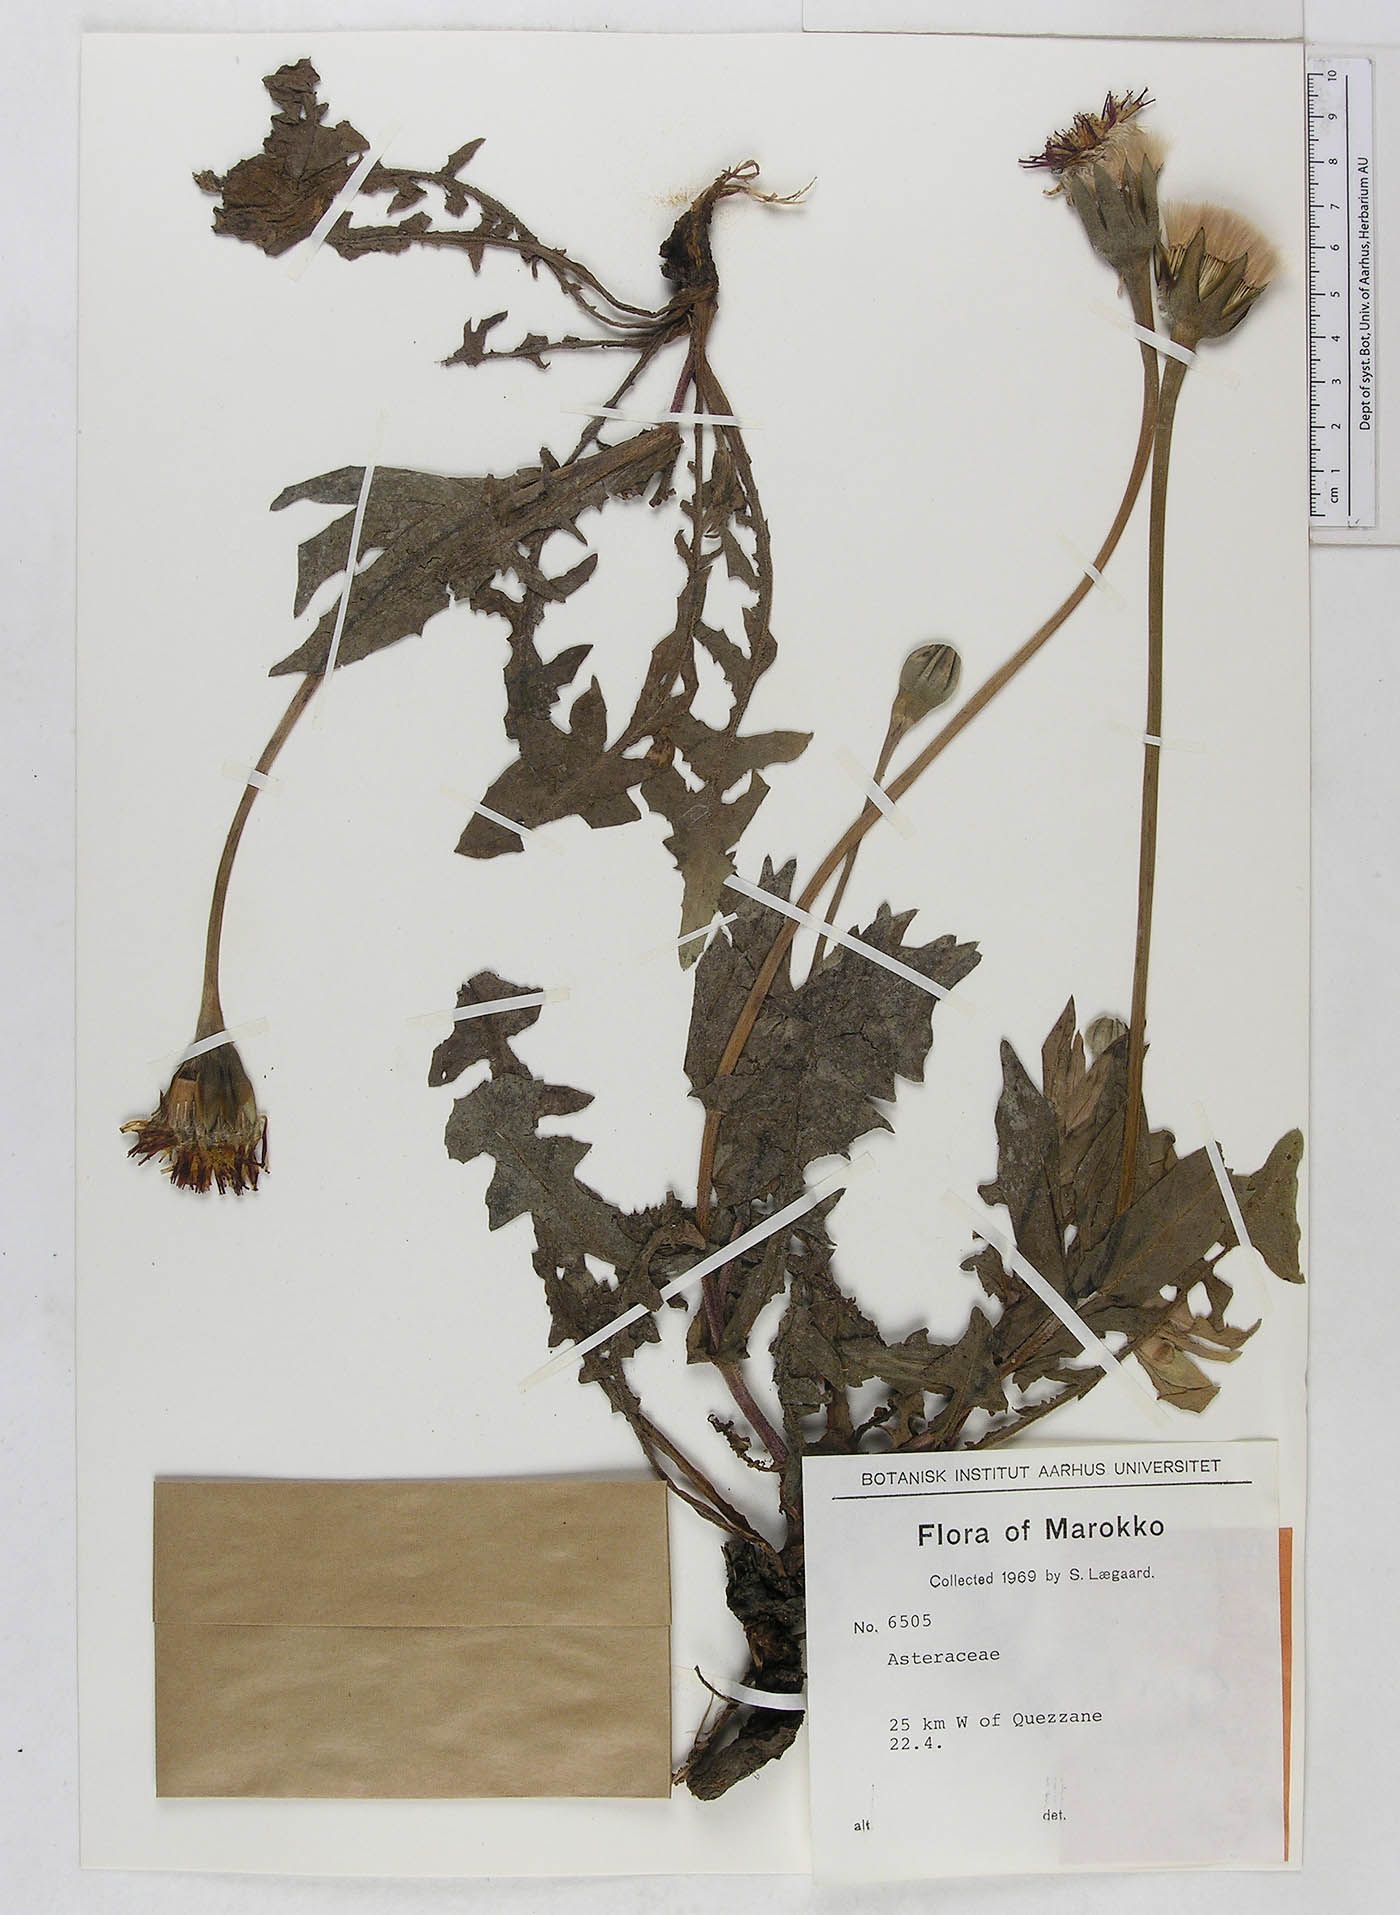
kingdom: Plantae
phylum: Tracheophyta
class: Magnoliopsida
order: Asterales
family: Asteraceae
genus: Urospermum
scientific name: Urospermum dalechampii
